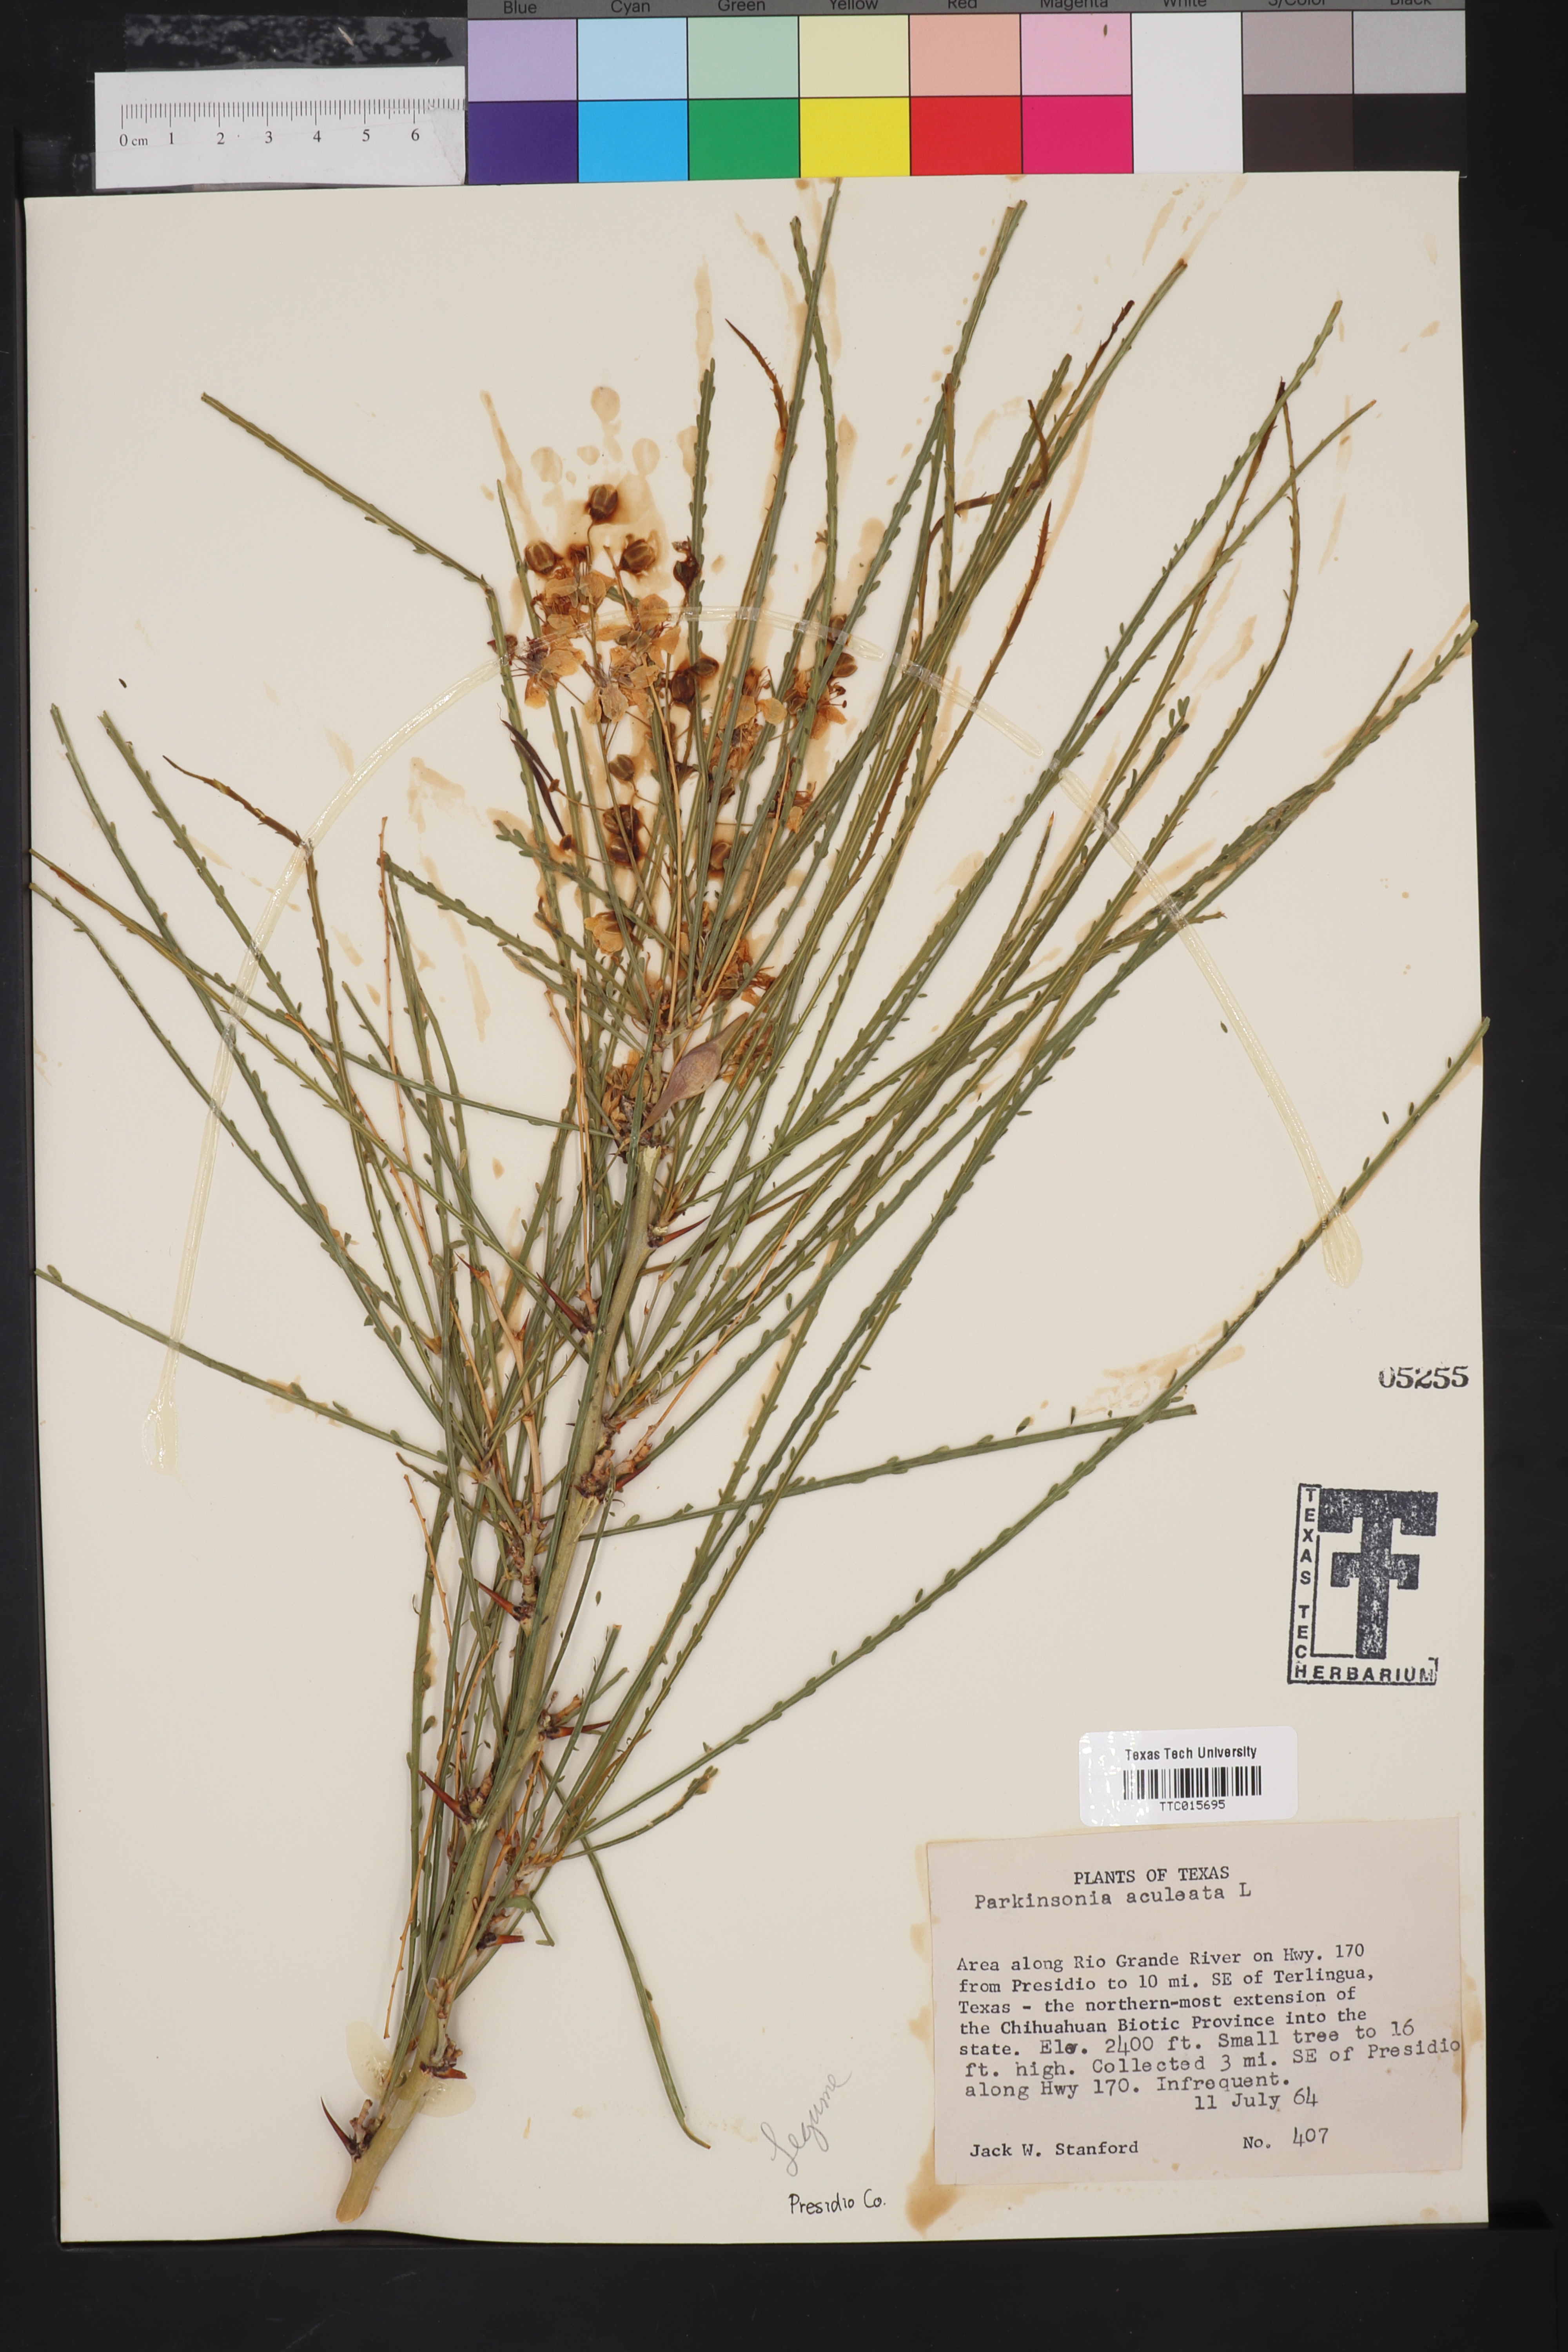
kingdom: Plantae
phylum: Tracheophyta
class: Magnoliopsida
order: Fabales
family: Fabaceae
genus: Parkinsonia
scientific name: Parkinsonia aculeata
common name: Jerusalem thorn
